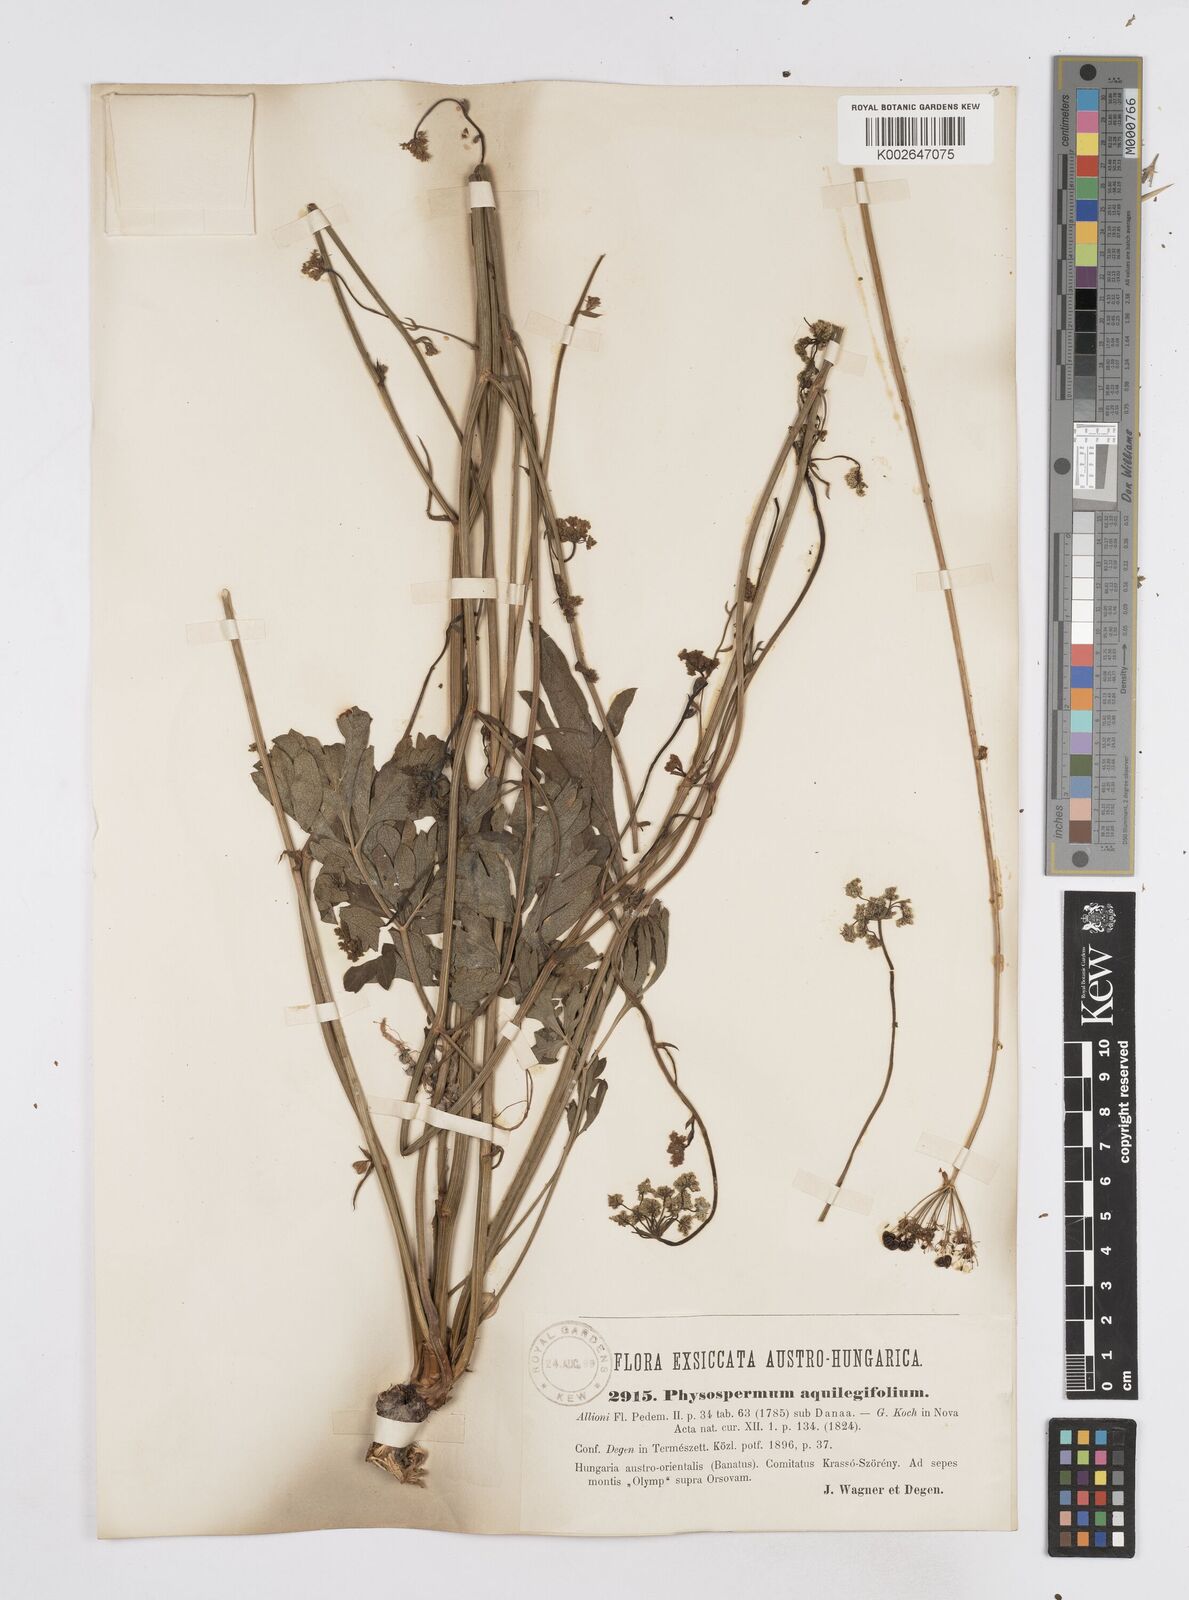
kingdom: Plantae
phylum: Tracheophyta
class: Magnoliopsida
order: Apiales
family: Apiaceae
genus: Physospermum
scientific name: Physospermum cornubiense
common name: Bladderseed
